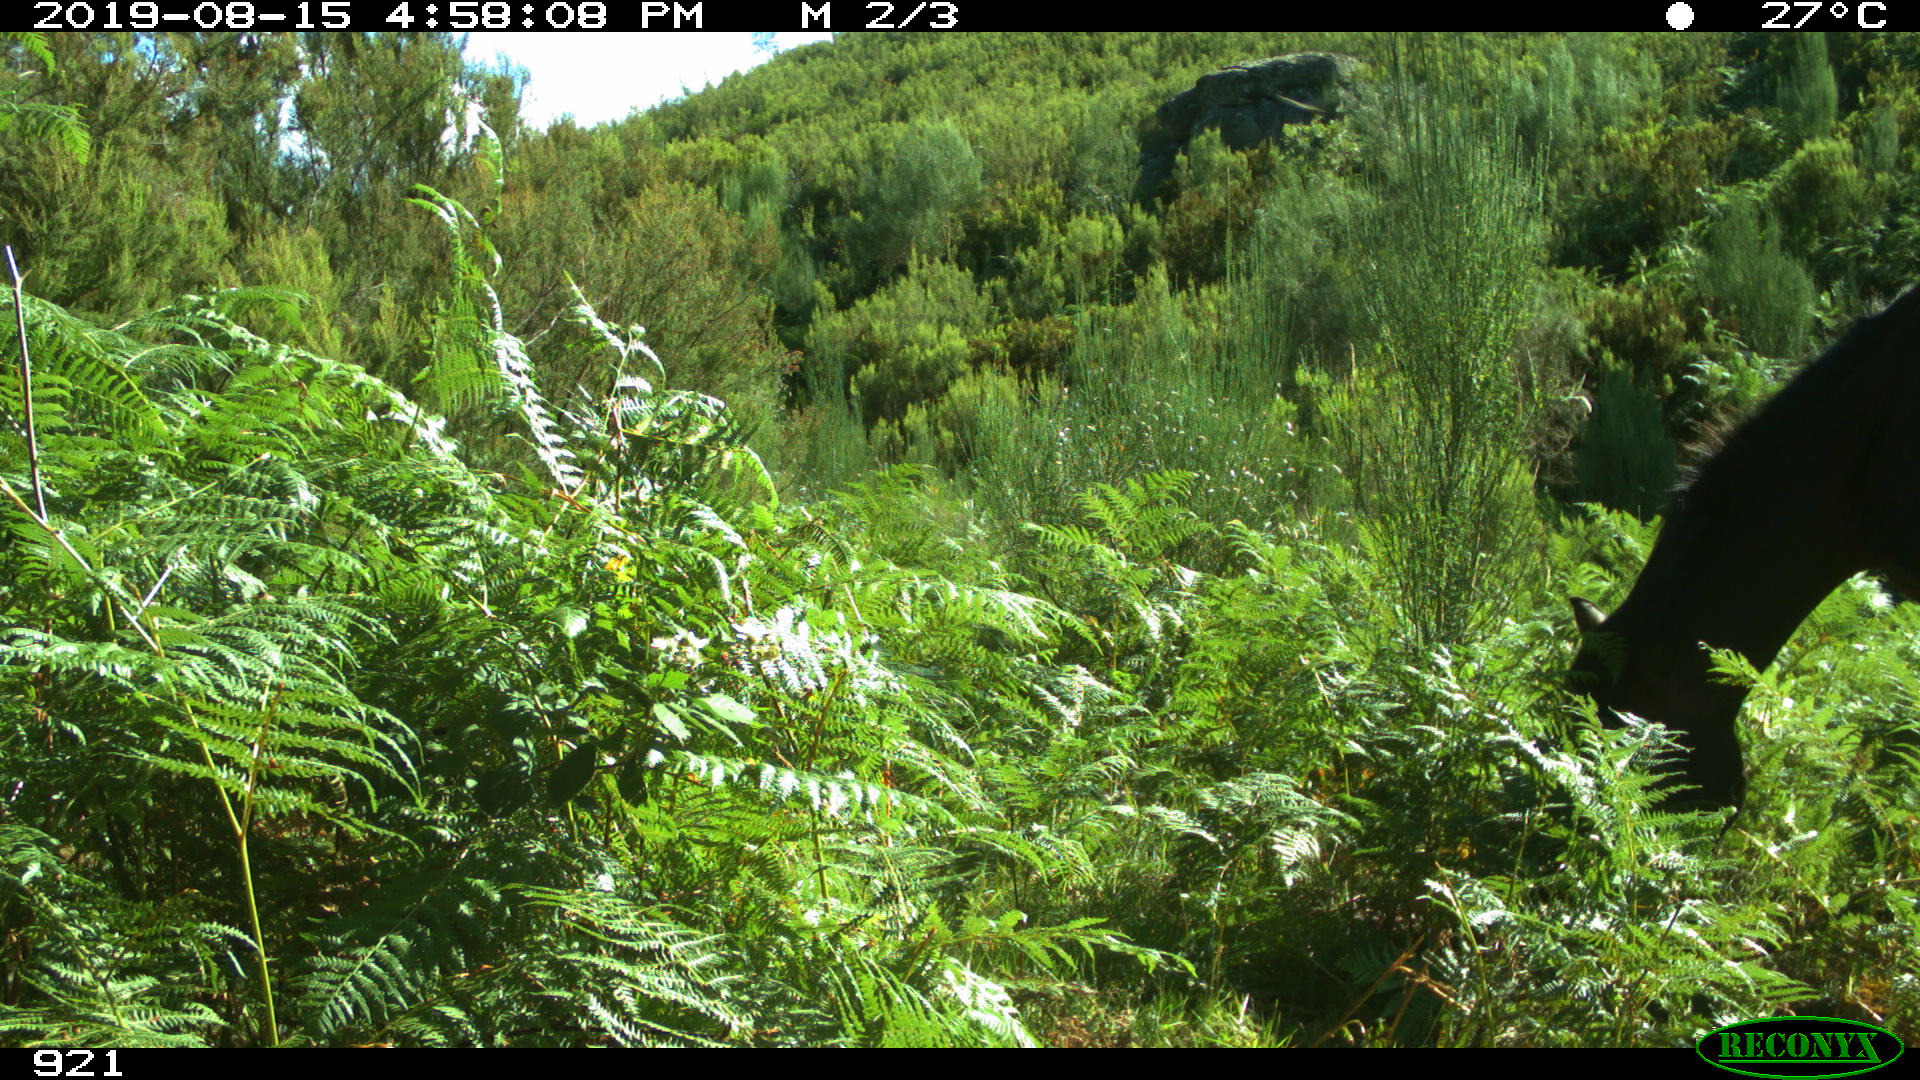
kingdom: Animalia
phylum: Chordata
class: Mammalia
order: Perissodactyla
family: Equidae
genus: Equus
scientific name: Equus caballus
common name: Horse
